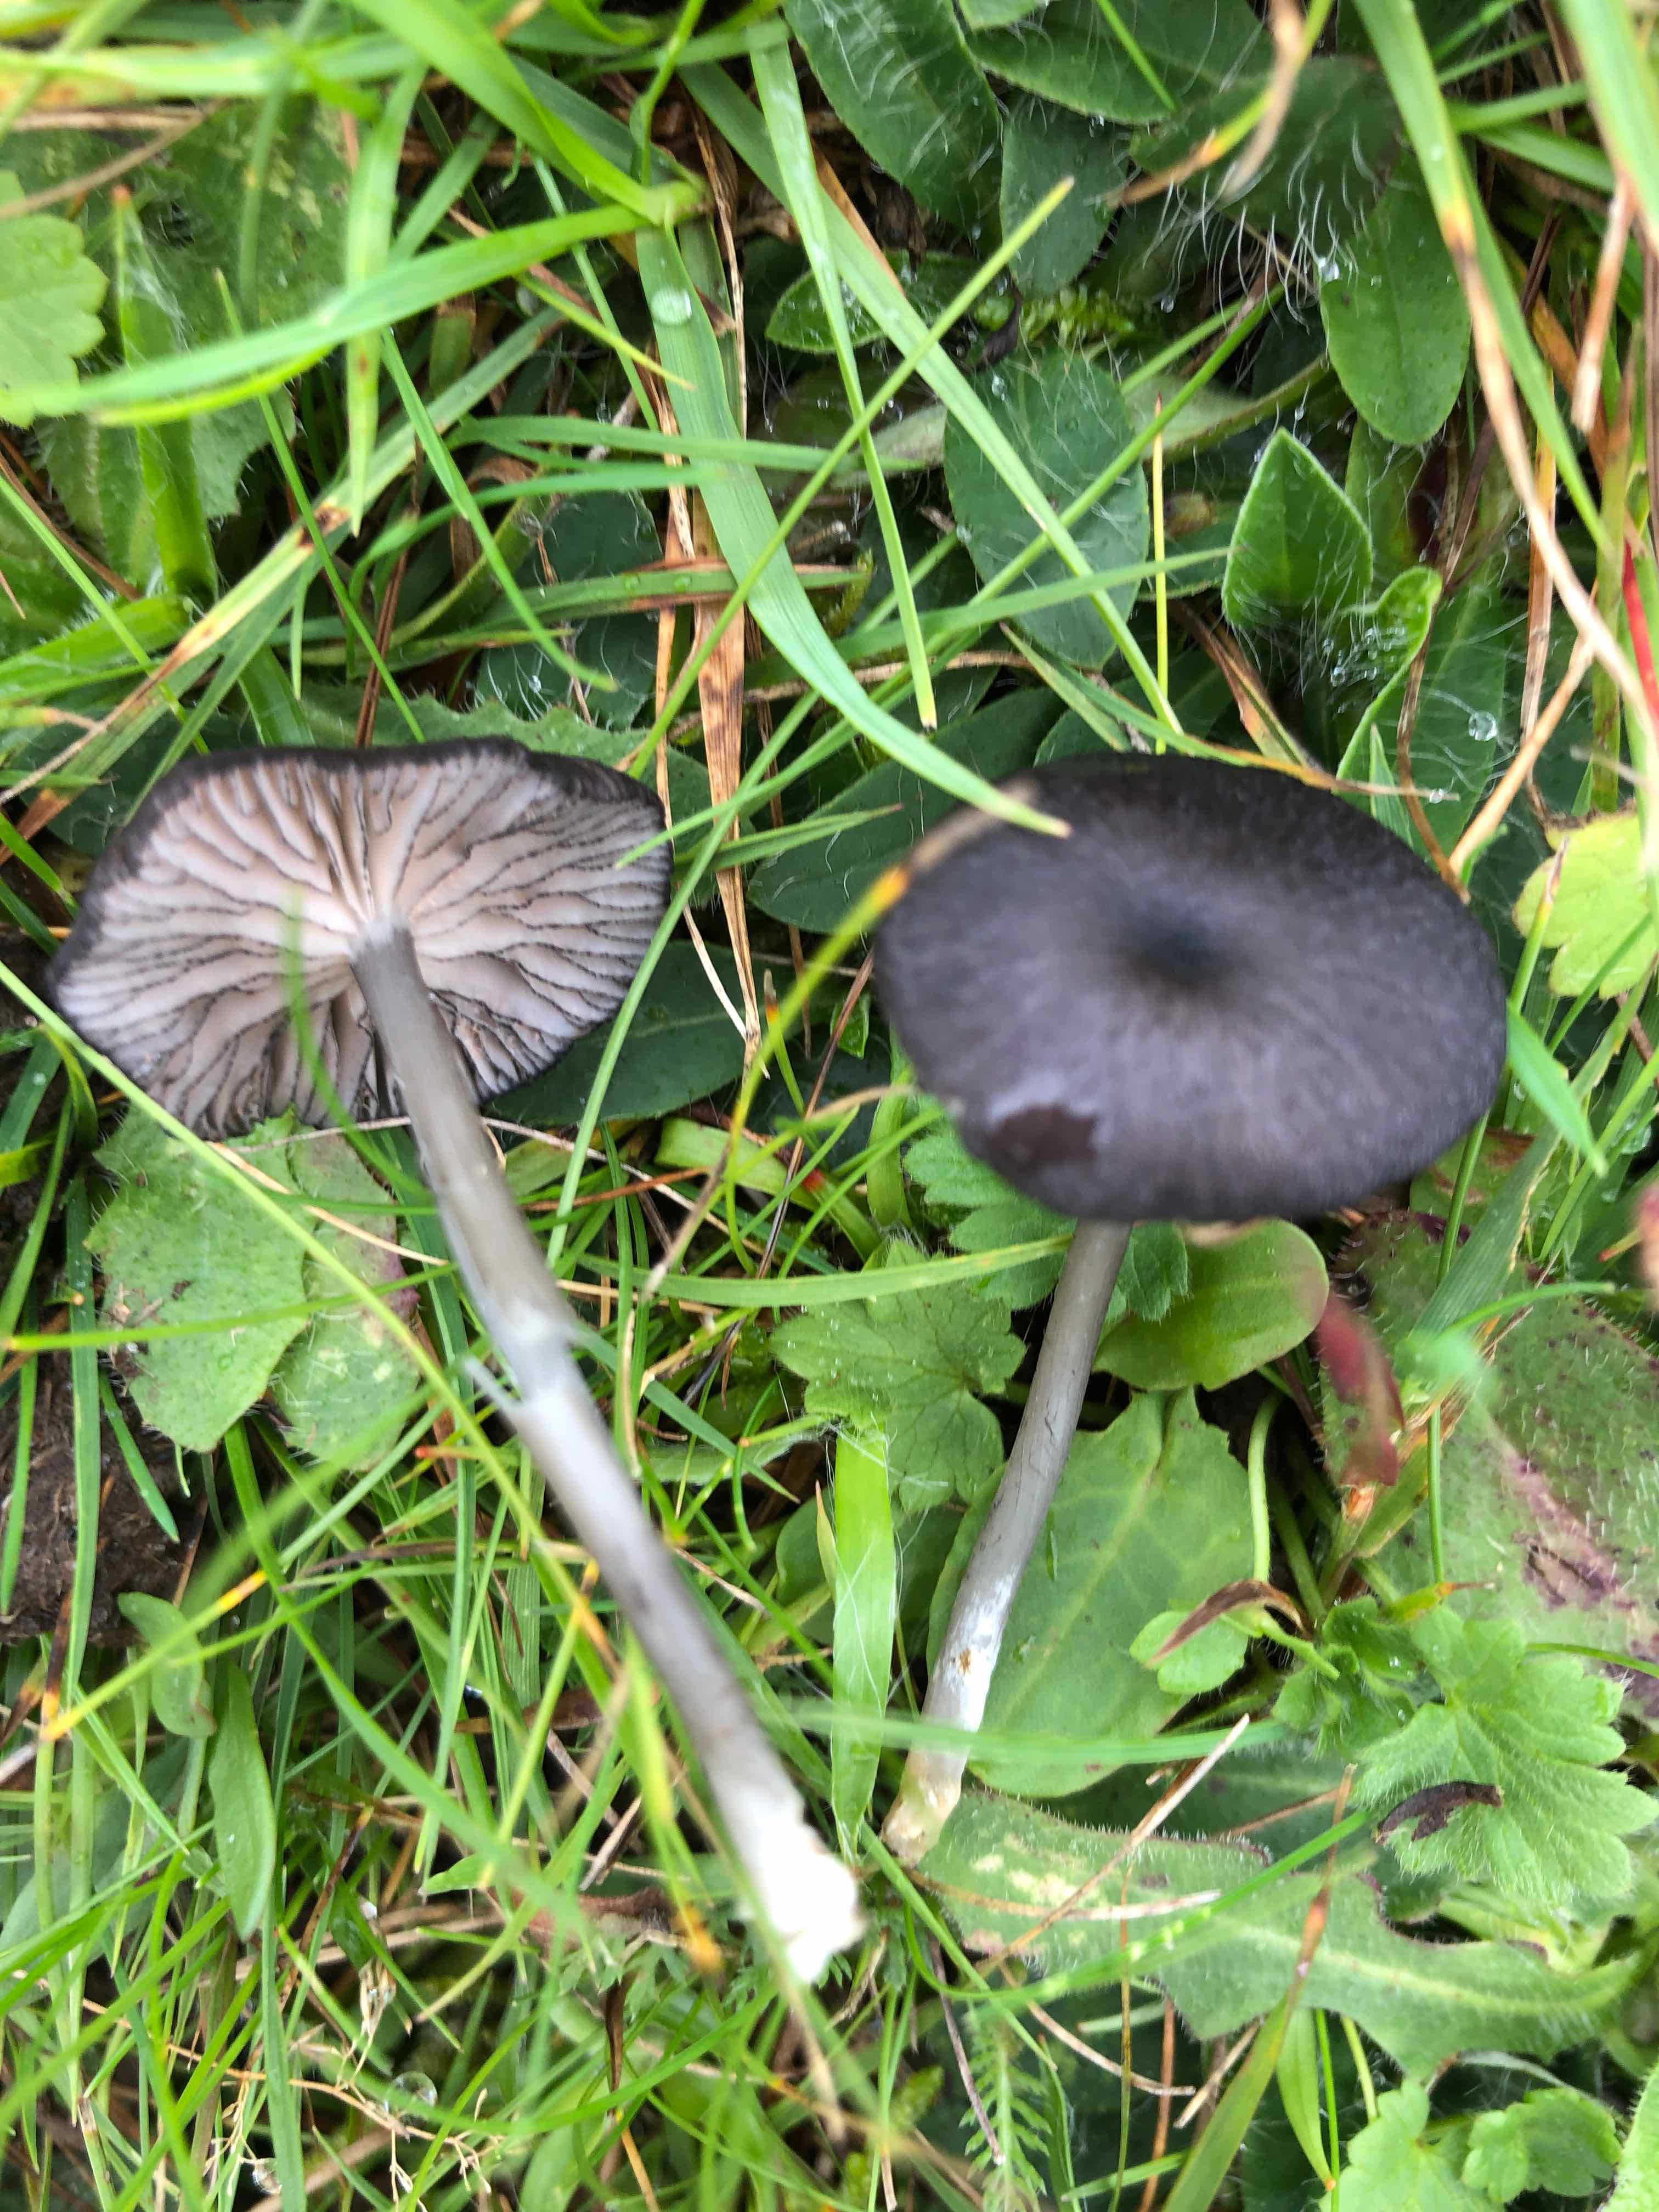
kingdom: Fungi
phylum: Basidiomycota
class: Agaricomycetes
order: Agaricales
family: Entolomataceae
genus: Entoloma
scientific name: Entoloma
